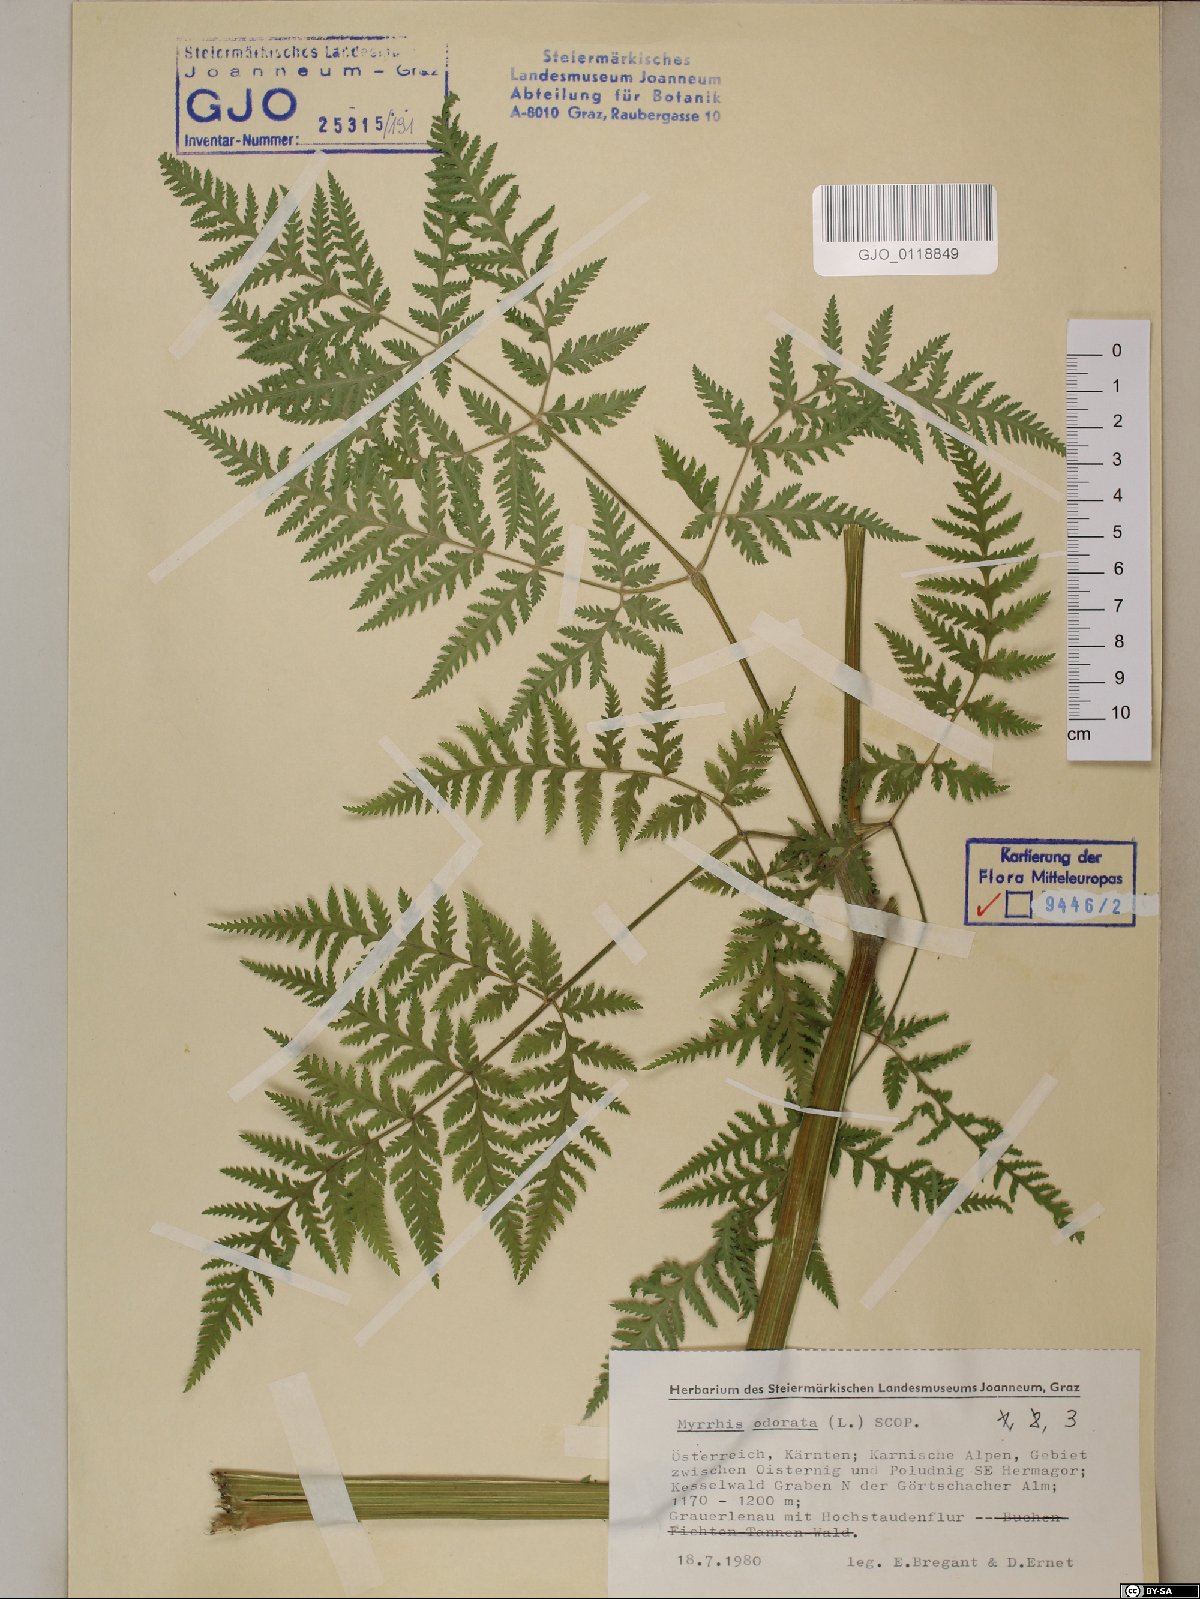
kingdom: Plantae
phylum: Tracheophyta
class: Magnoliopsida
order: Apiales
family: Apiaceae
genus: Myrrhis
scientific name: Myrrhis odorata
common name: Sweet cicely
